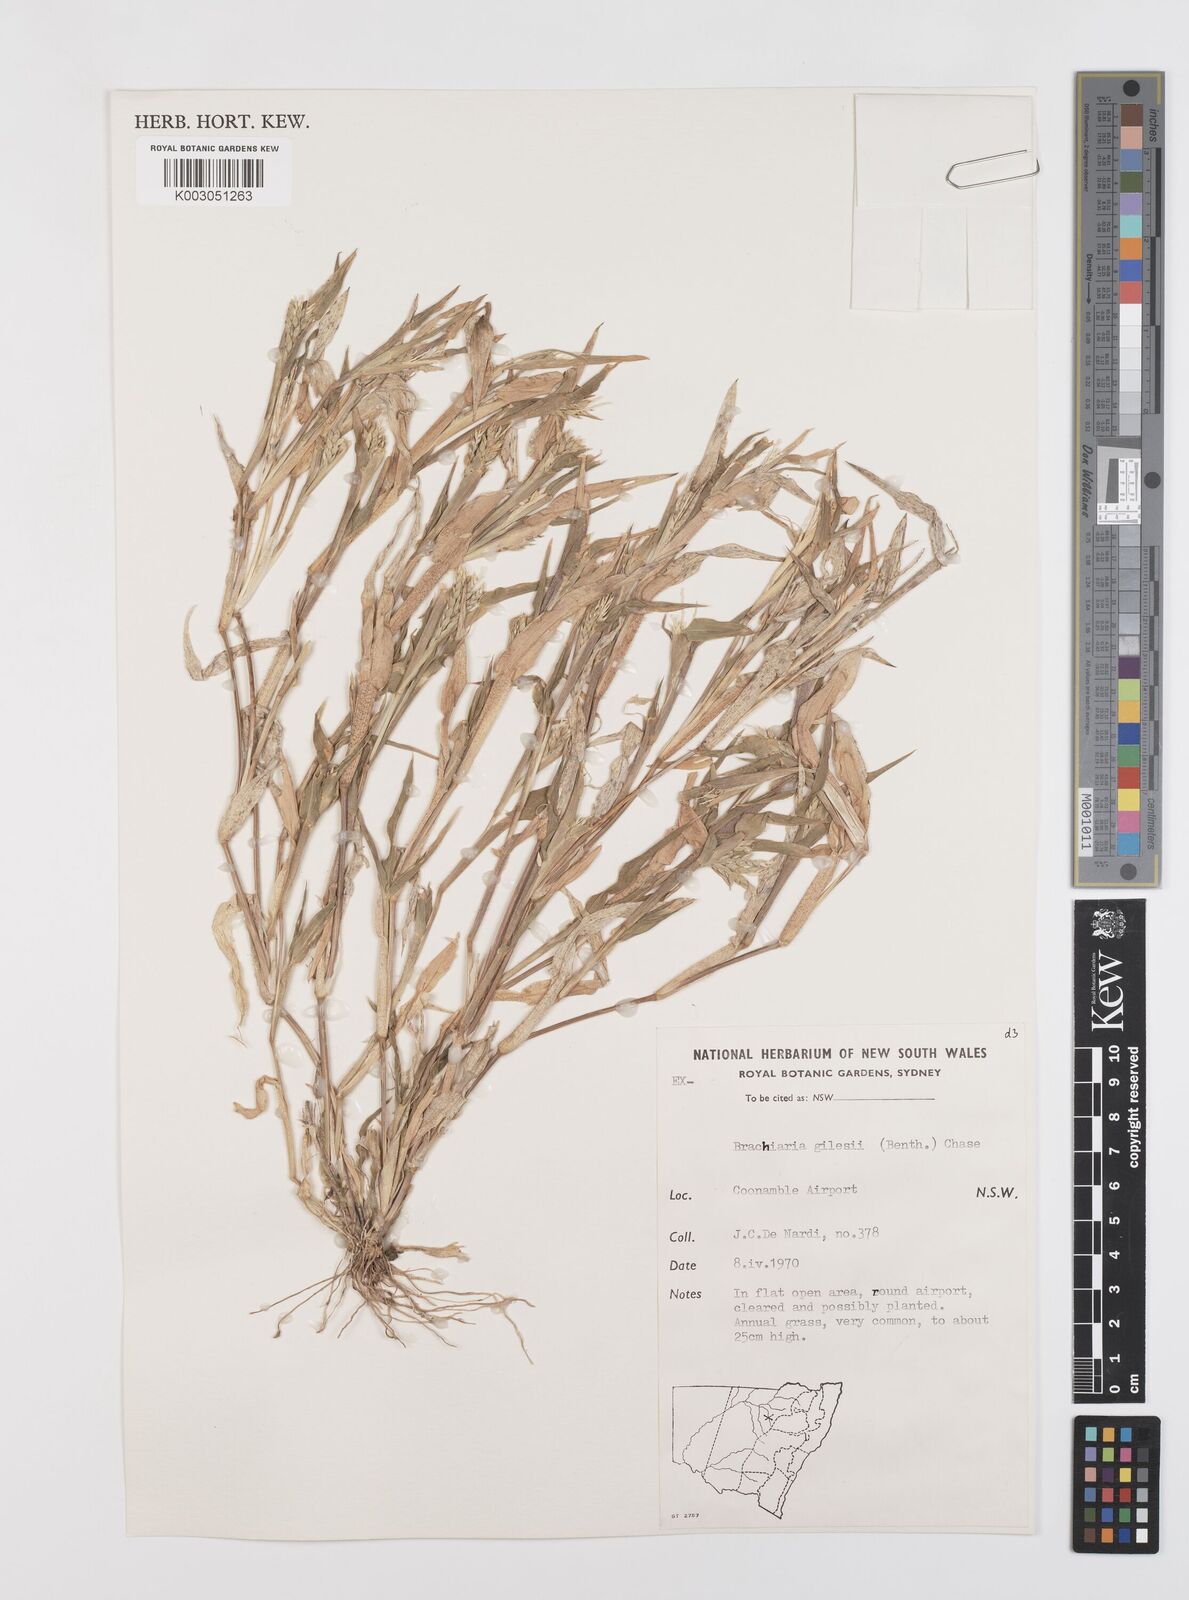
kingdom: Plantae
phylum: Tracheophyta
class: Liliopsida
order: Poales
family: Poaceae
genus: Urochloa
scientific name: Urochloa gilesii
